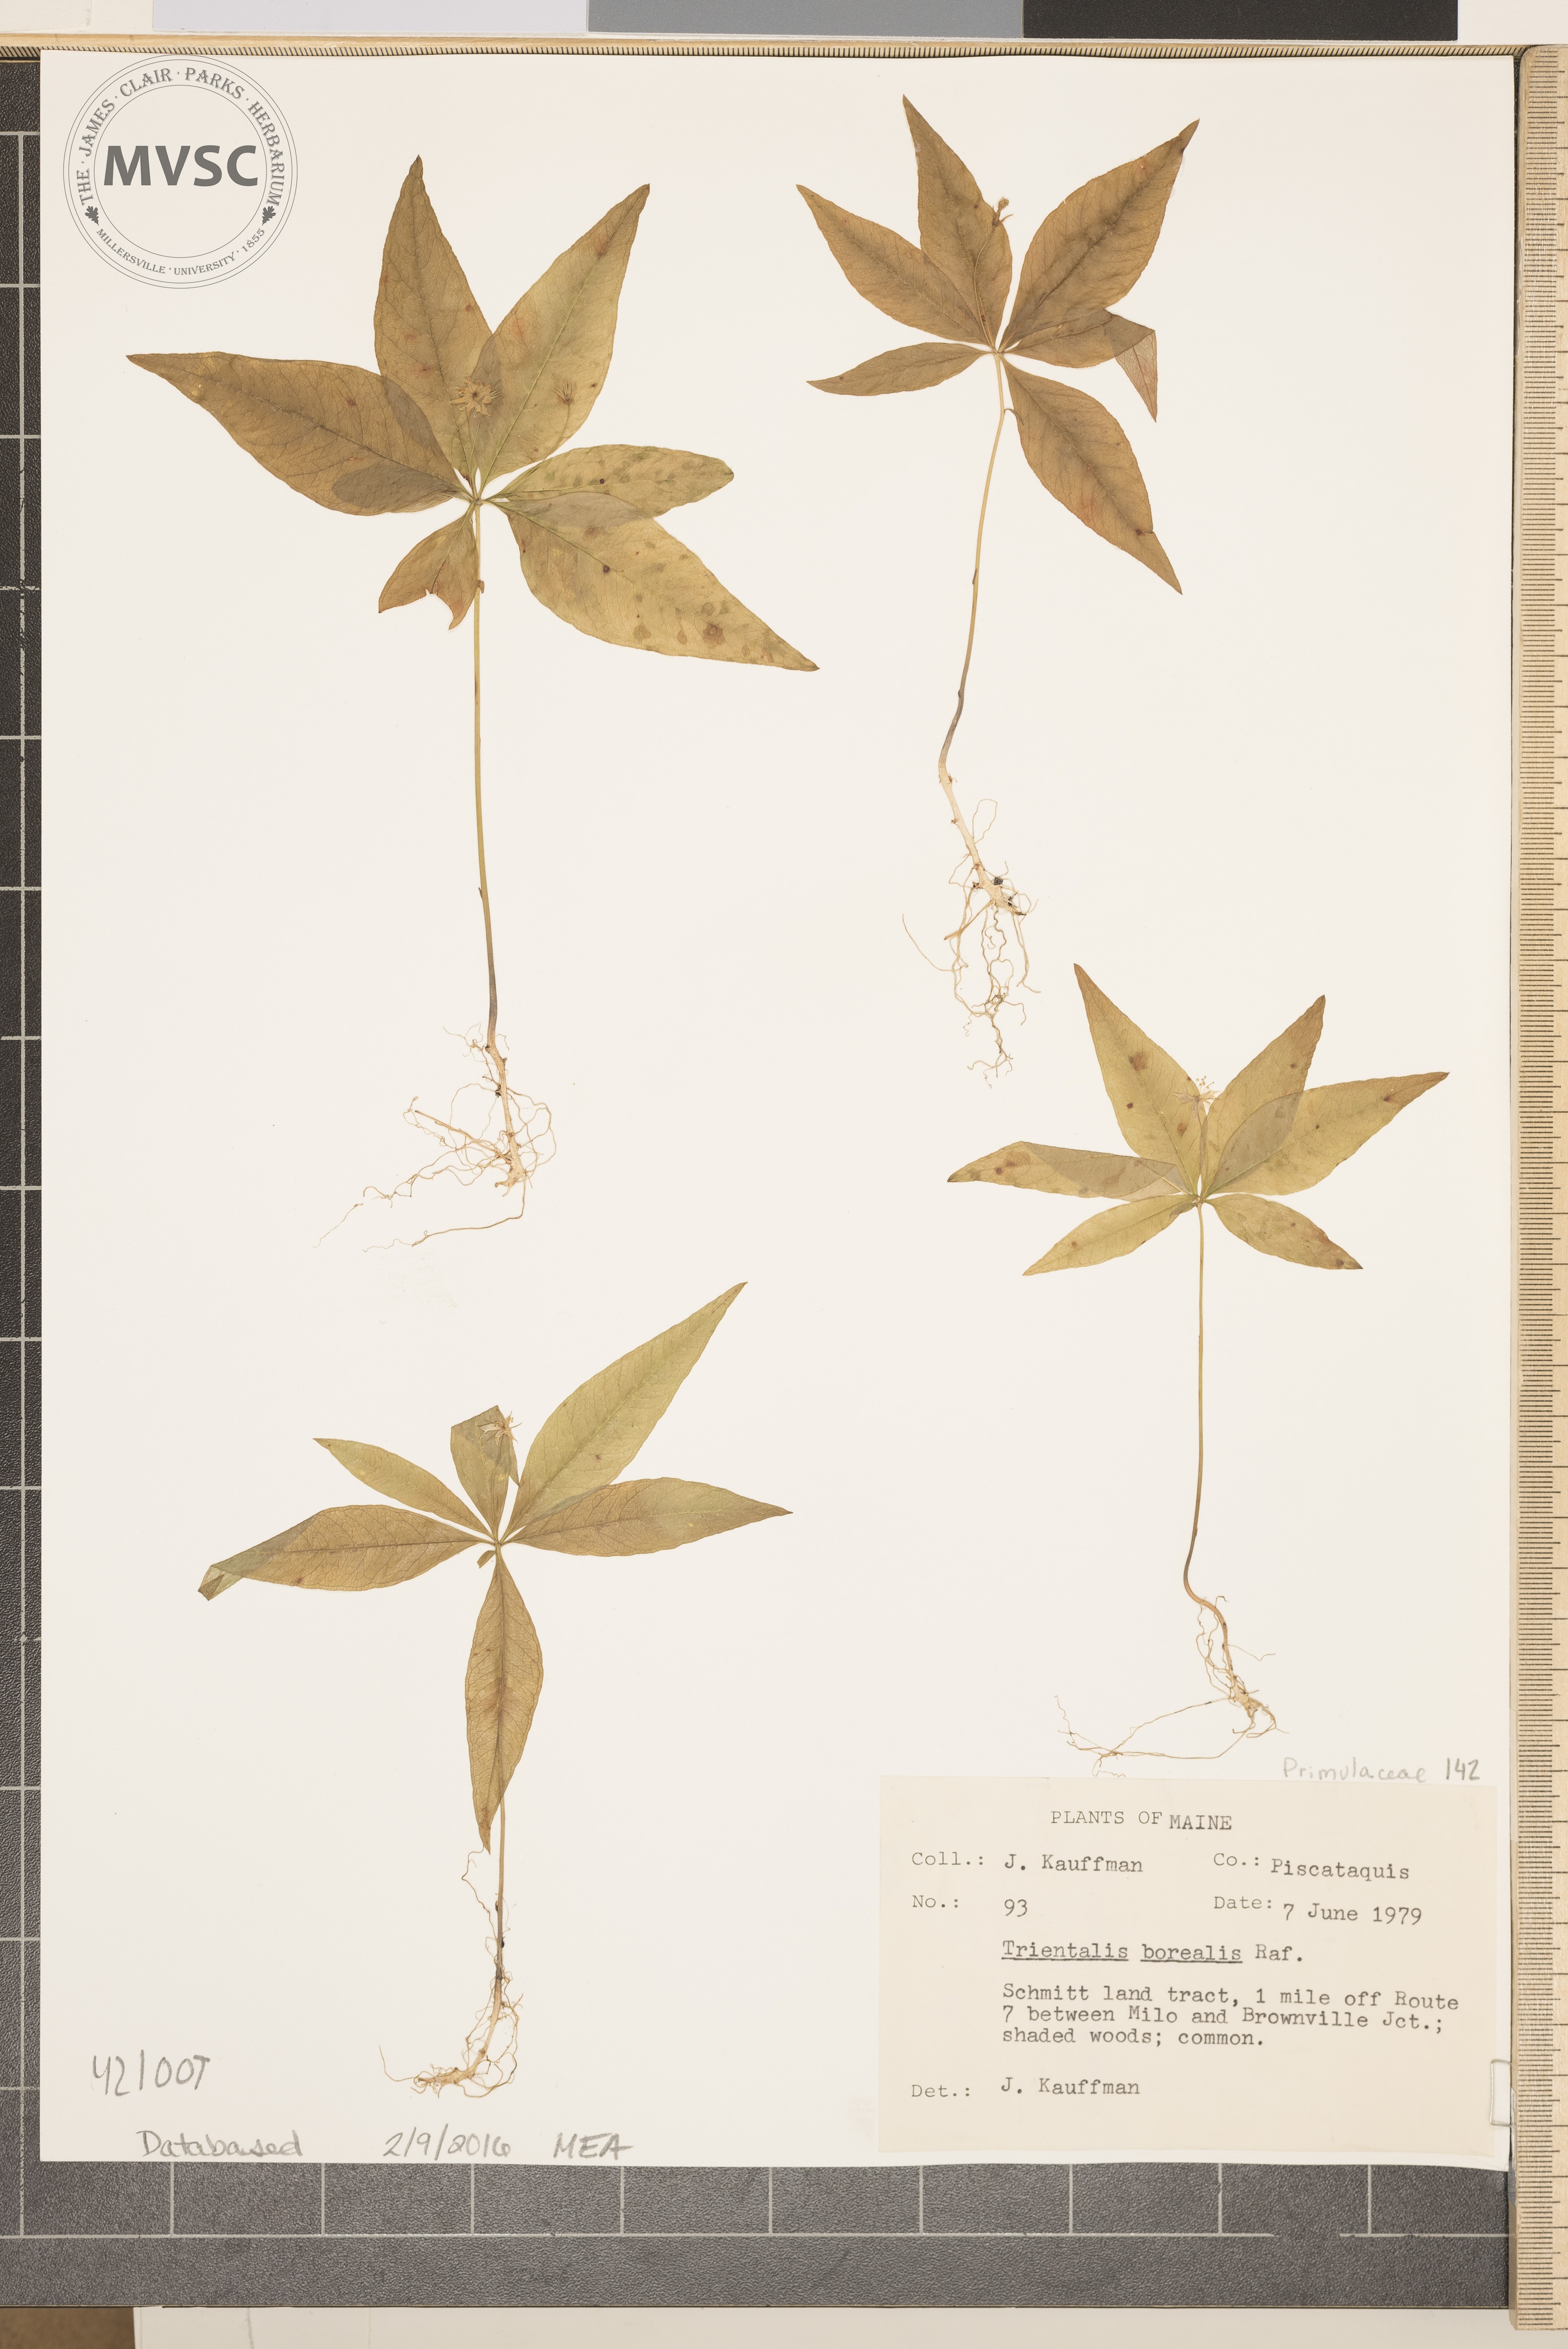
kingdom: Plantae
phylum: Tracheophyta
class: Magnoliopsida
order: Ericales
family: Primulaceae
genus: Lysimachia
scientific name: Lysimachia borealis
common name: Starflower
